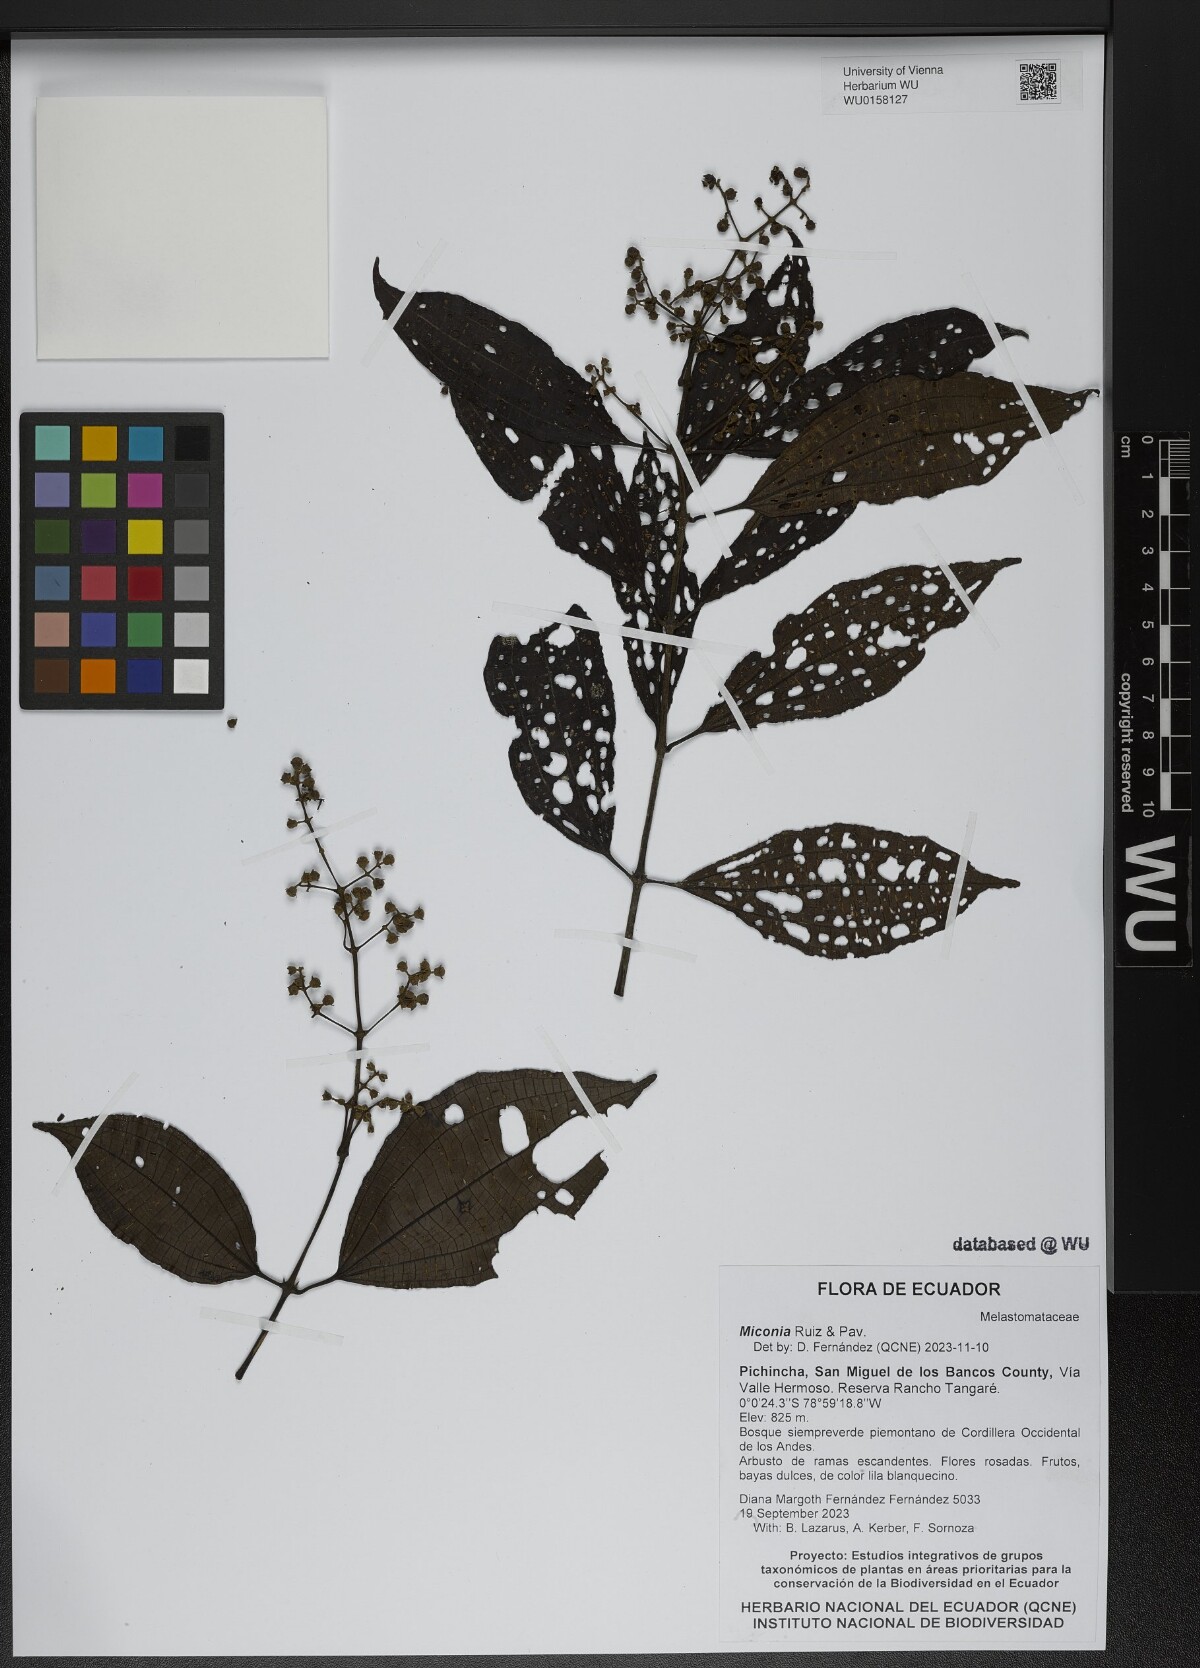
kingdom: Plantae
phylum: Tracheophyta
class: Magnoliopsida
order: Myrtales
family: Melastomataceae
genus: Miconia
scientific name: Miconia
